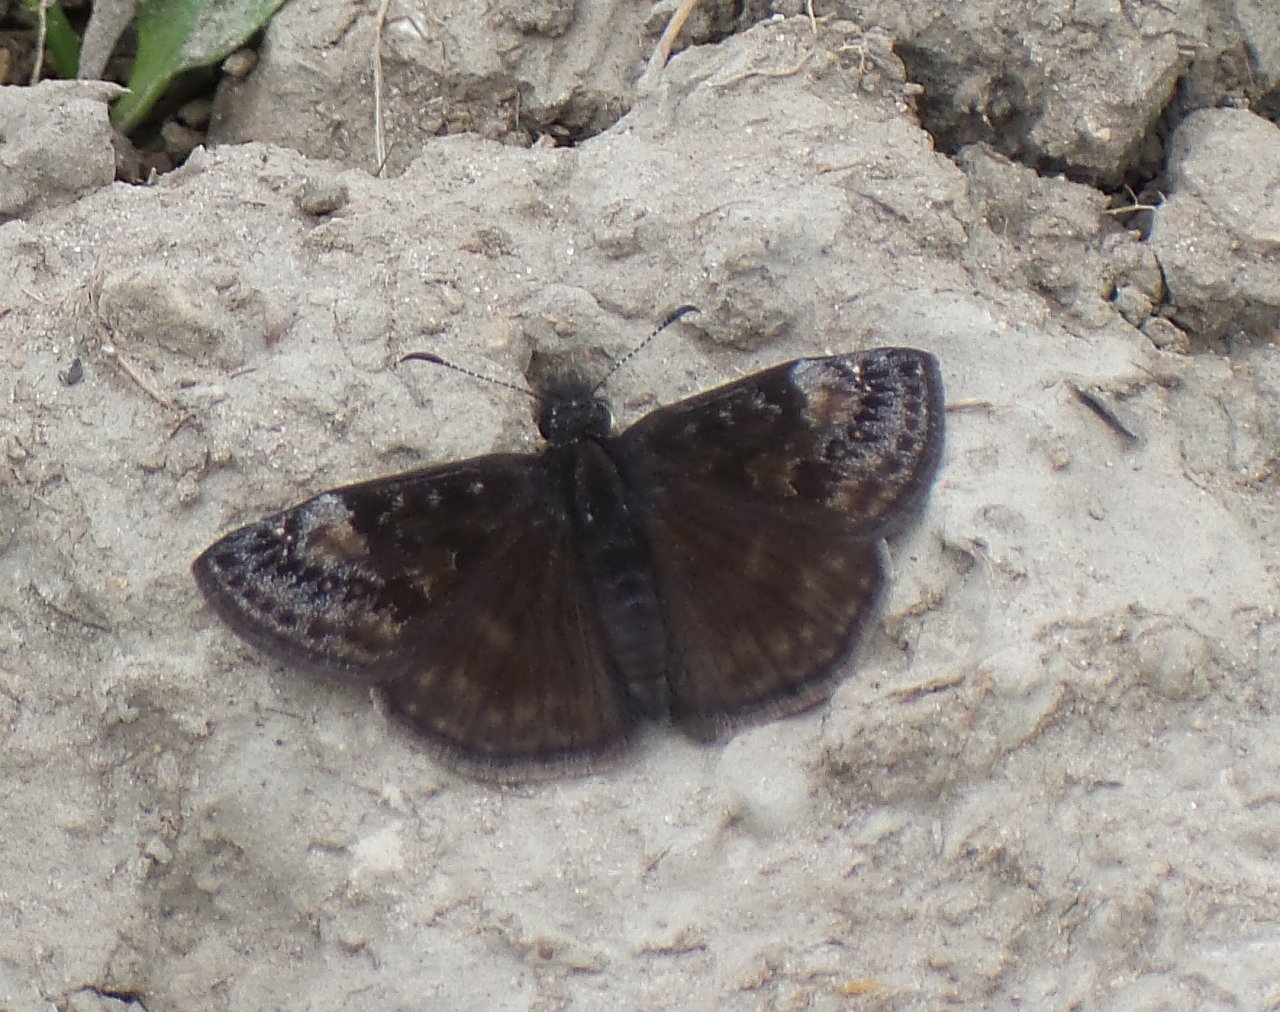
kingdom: Animalia
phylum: Arthropoda
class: Insecta
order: Lepidoptera
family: Hesperiidae
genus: Gesta
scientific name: Gesta
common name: Wild Indigo Duskywing
